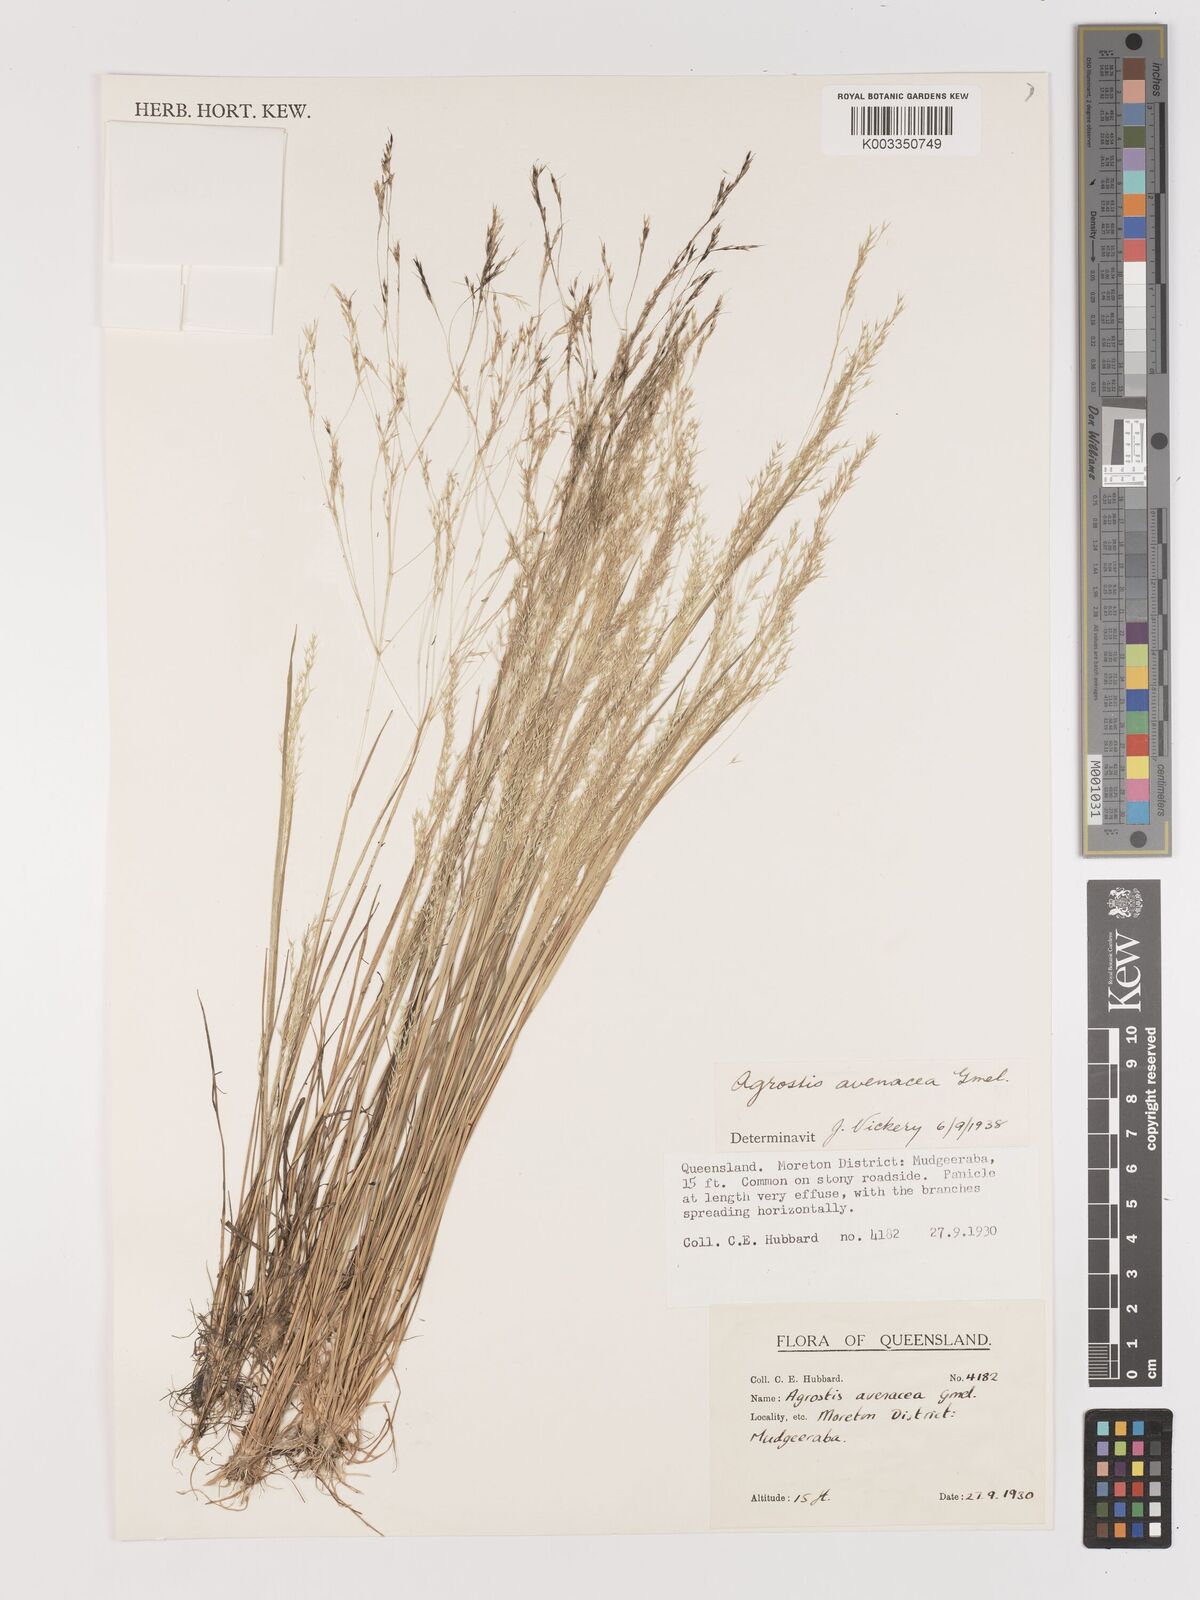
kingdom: Plantae
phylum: Tracheophyta
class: Liliopsida
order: Poales
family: Poaceae
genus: Lachnagrostis
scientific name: Lachnagrostis filiformis
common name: Bentgrass
